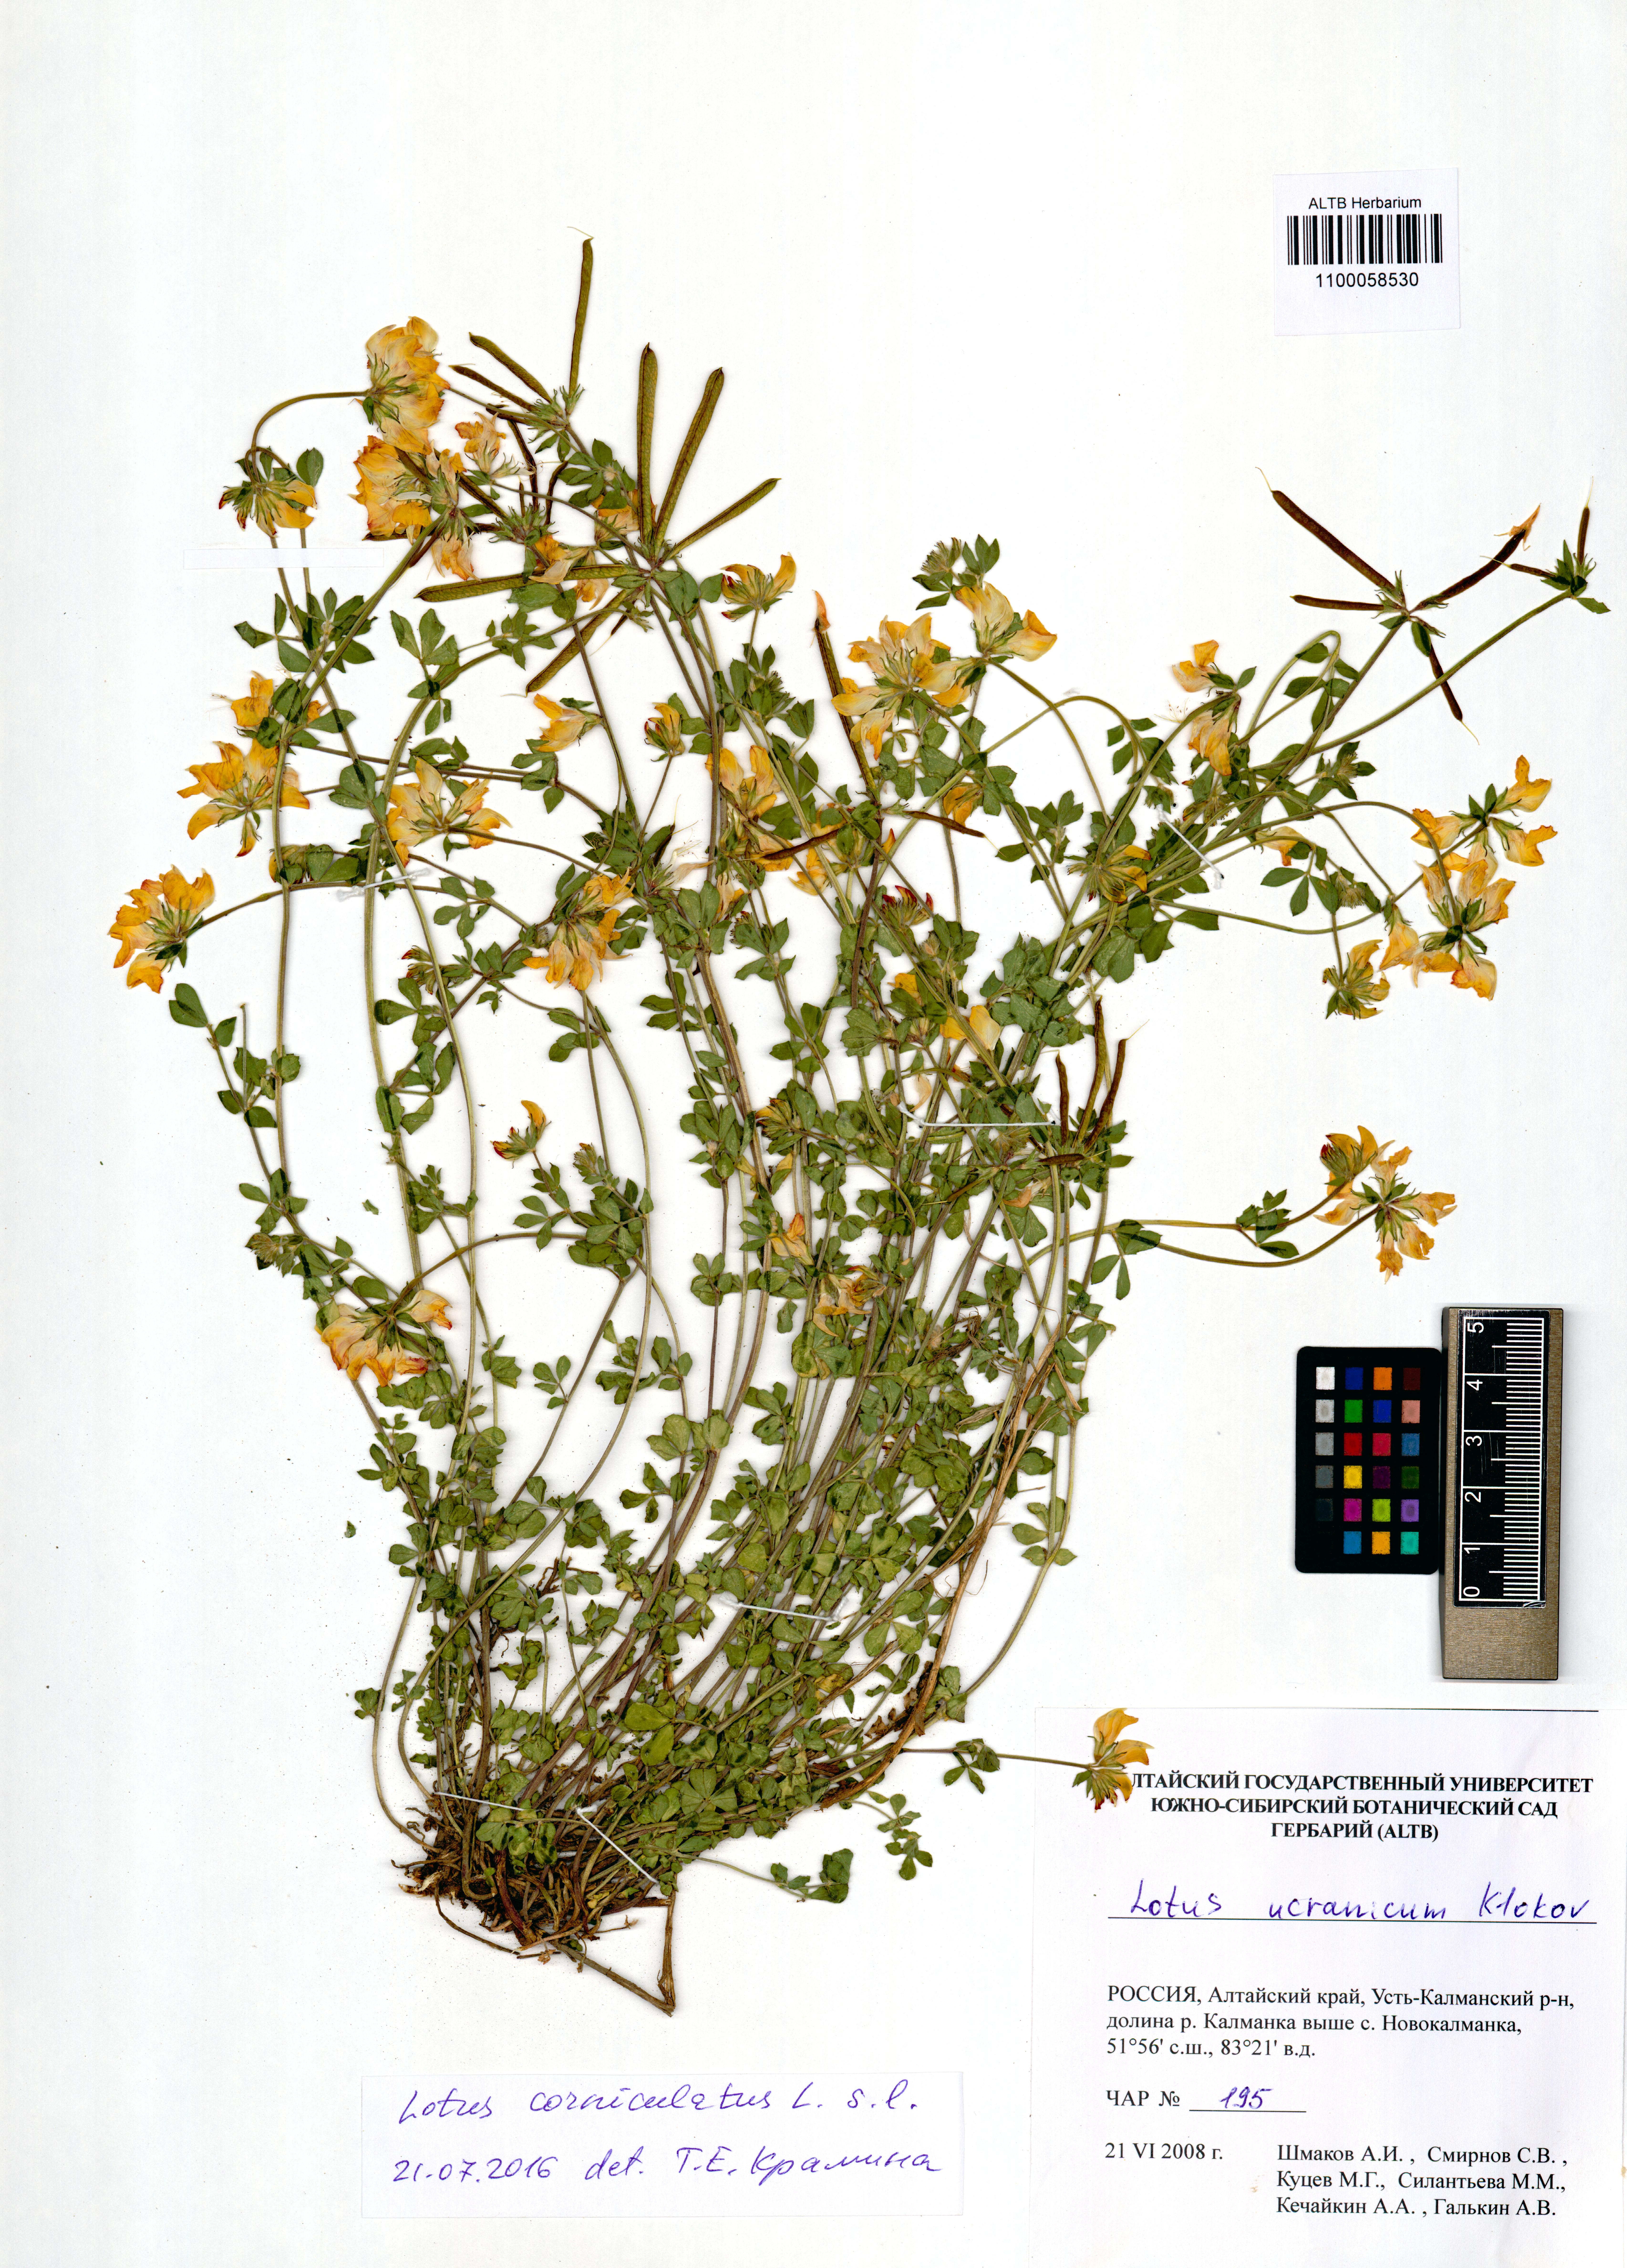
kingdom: Plantae
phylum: Tracheophyta
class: Magnoliopsida
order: Fabales
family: Fabaceae
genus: Lotus
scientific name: Lotus corniculatus
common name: Common bird's-foot-trefoil
